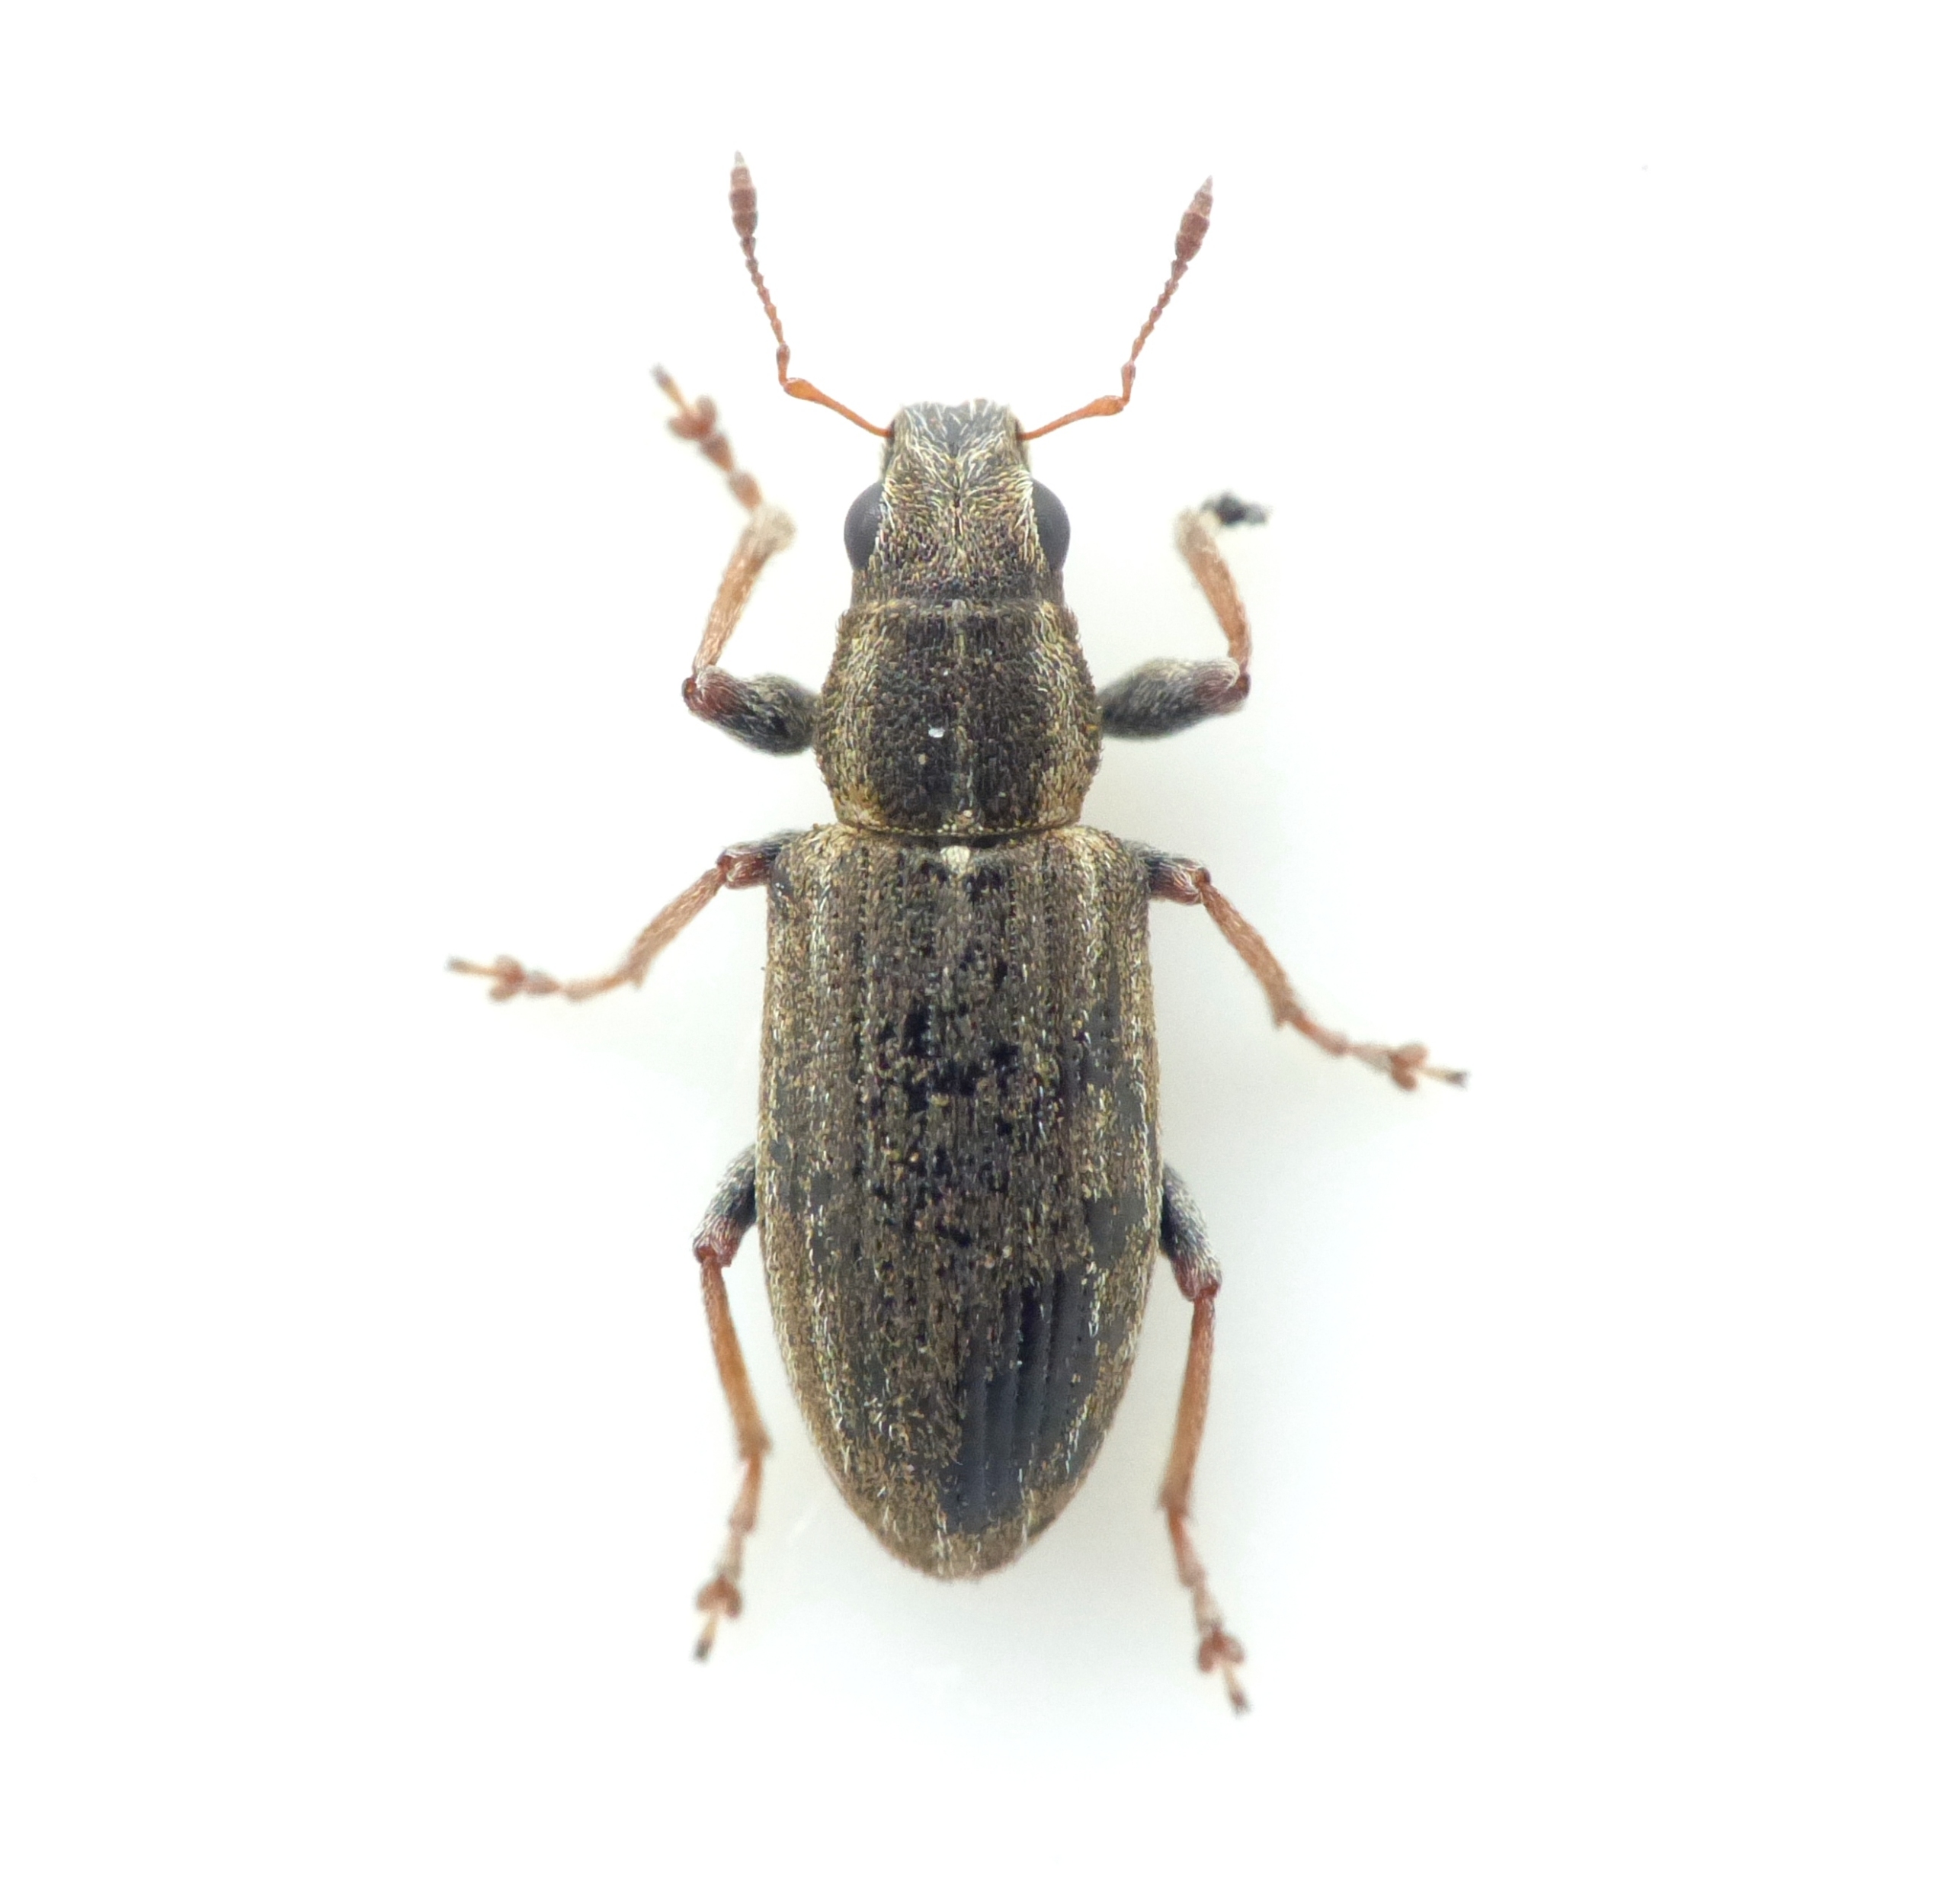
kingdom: Animalia
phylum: Arthropoda
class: Insecta
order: Coleoptera
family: Curculionidae
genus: Sitona
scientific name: Sitona lineatus
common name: Stribet bladrandbille
